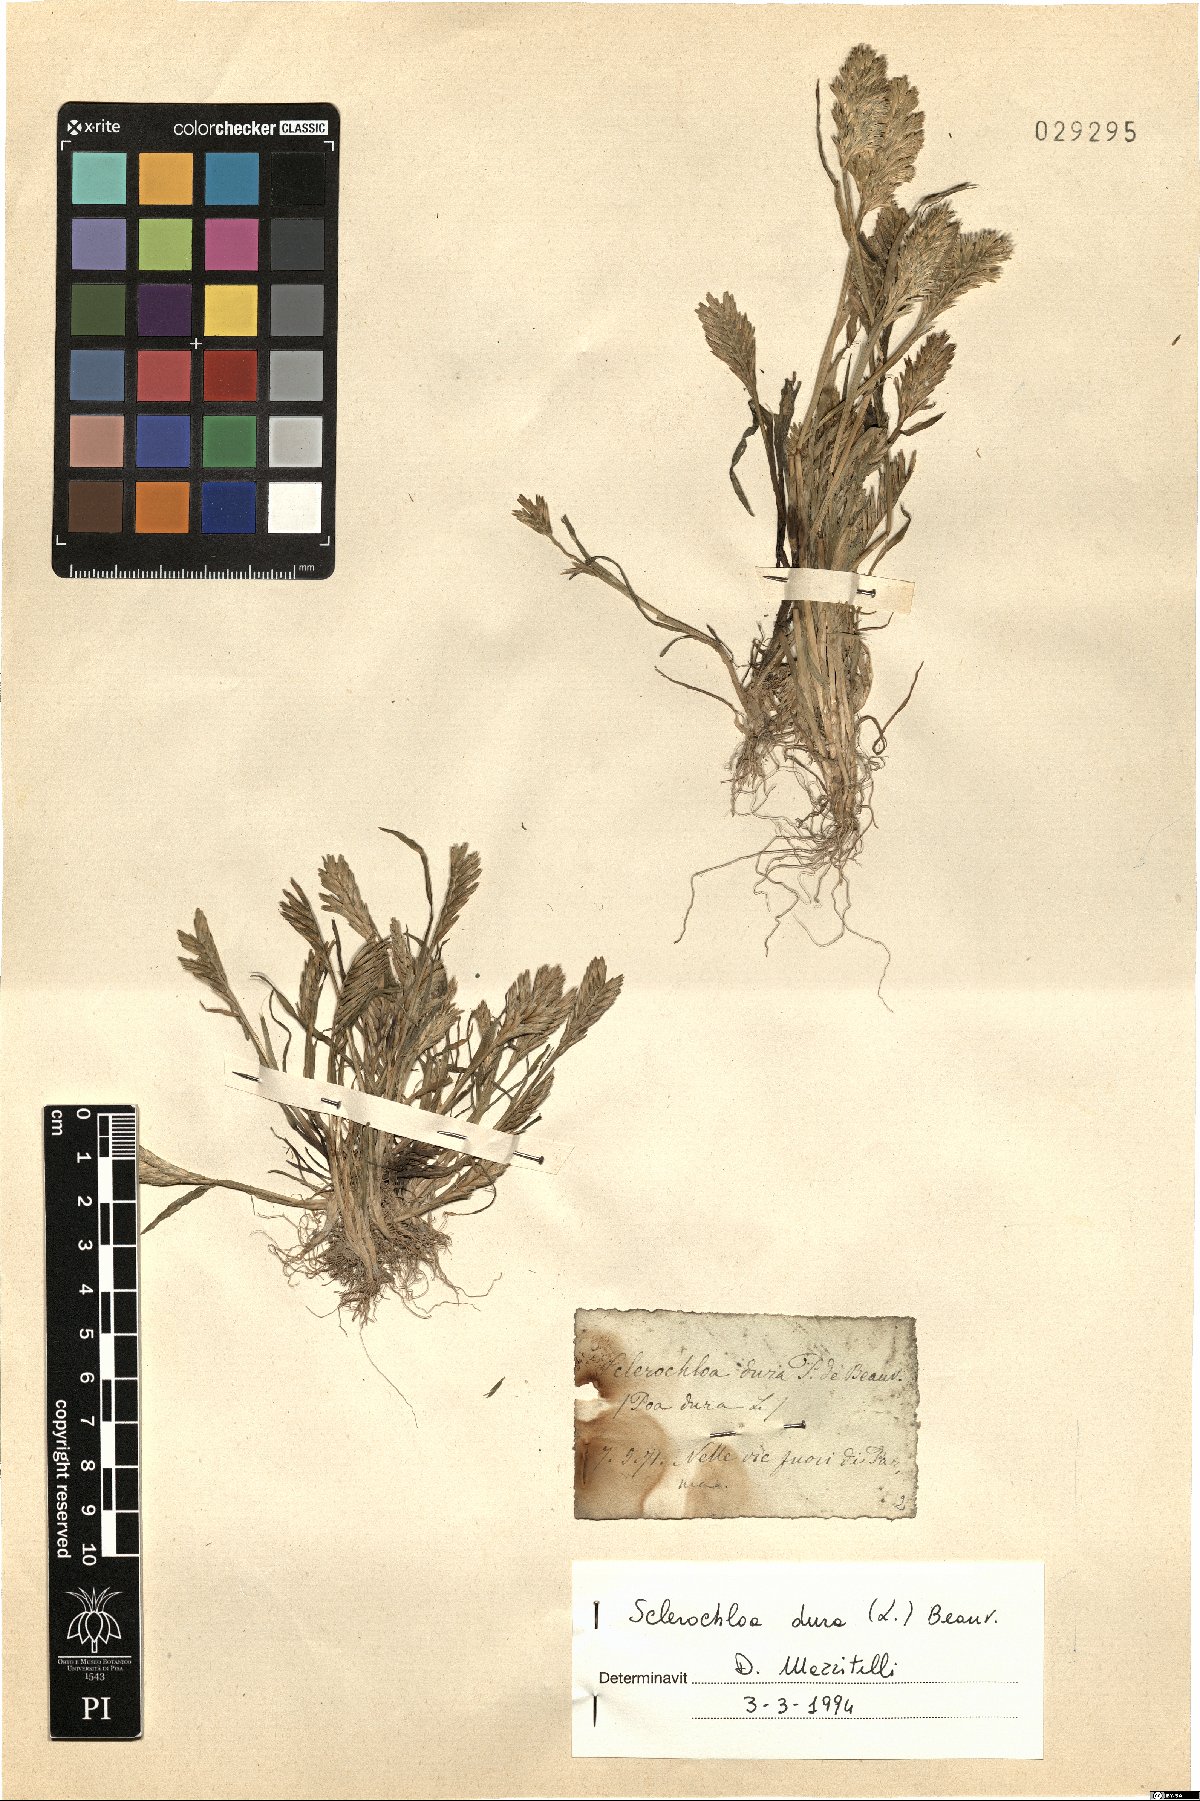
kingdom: Plantae
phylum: Tracheophyta
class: Liliopsida
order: Poales
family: Poaceae
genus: Sclerochloa
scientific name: Sclerochloa dura
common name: Common hardgrass
